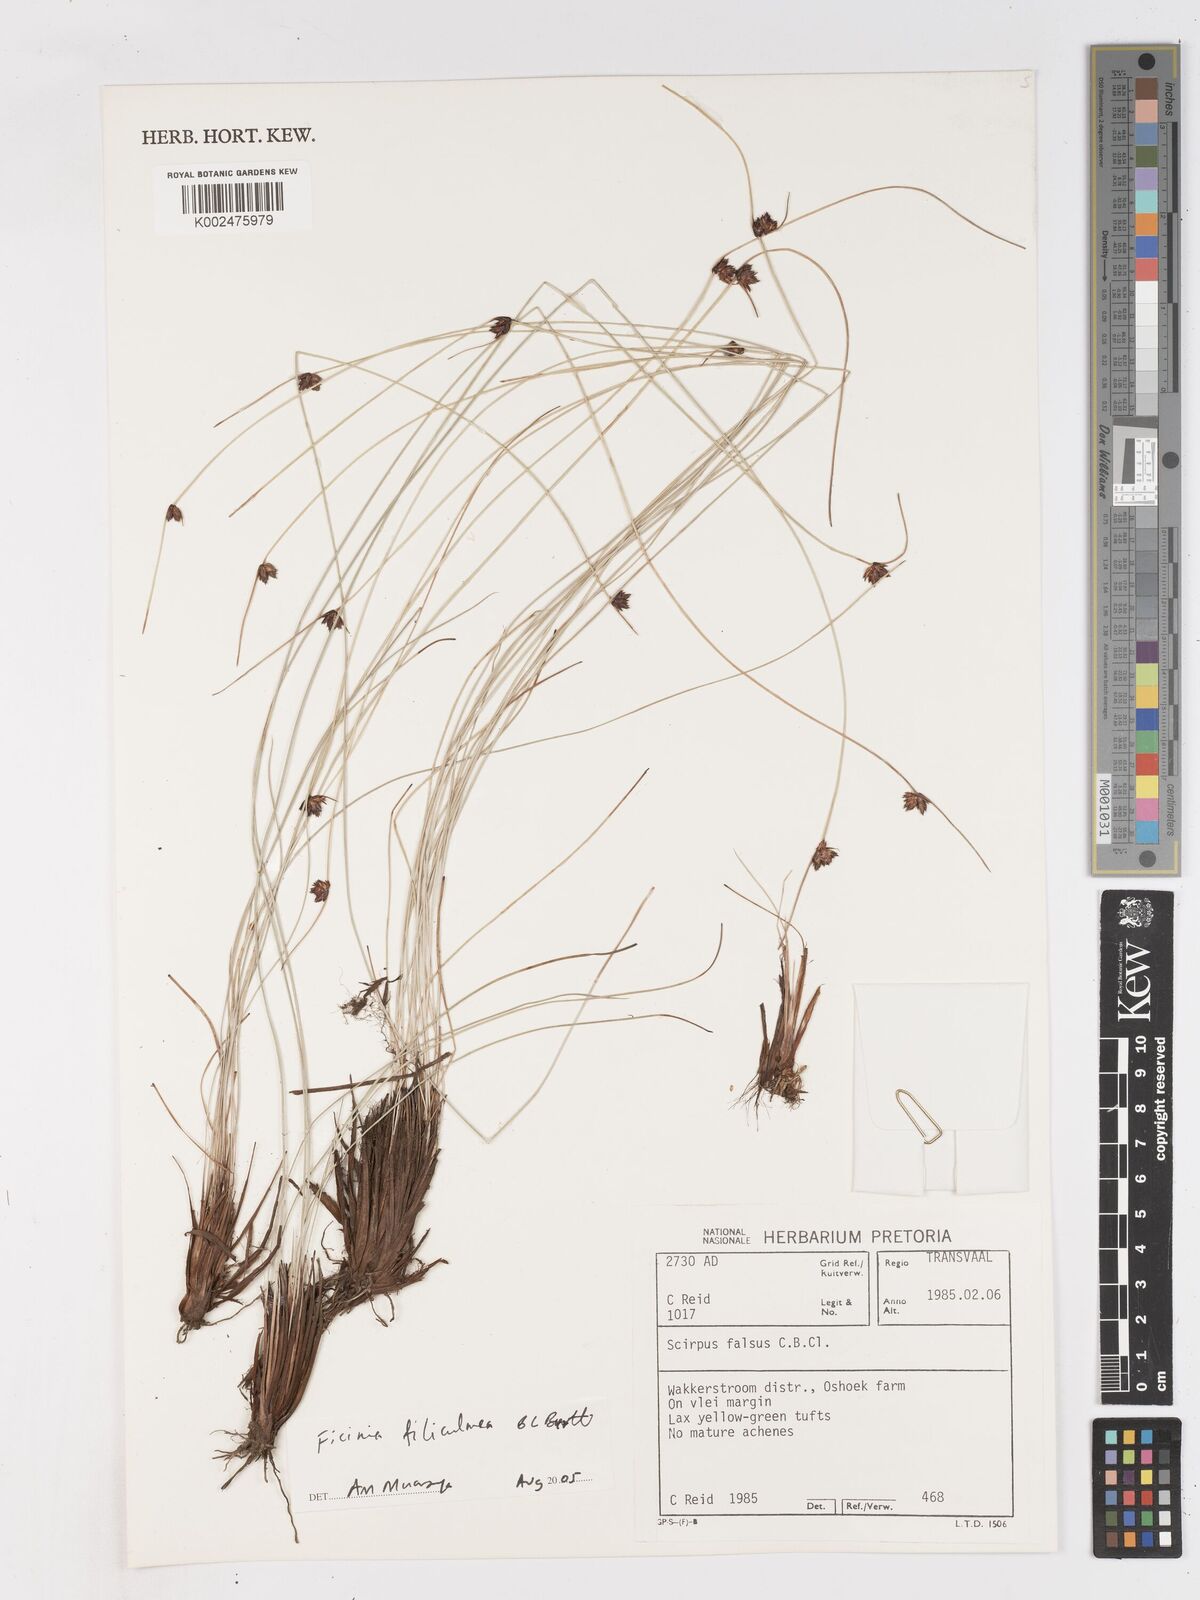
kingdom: Plantae
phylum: Tracheophyta
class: Liliopsida
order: Poales
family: Cyperaceae
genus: Ficinia
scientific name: Ficinia filiculmea
